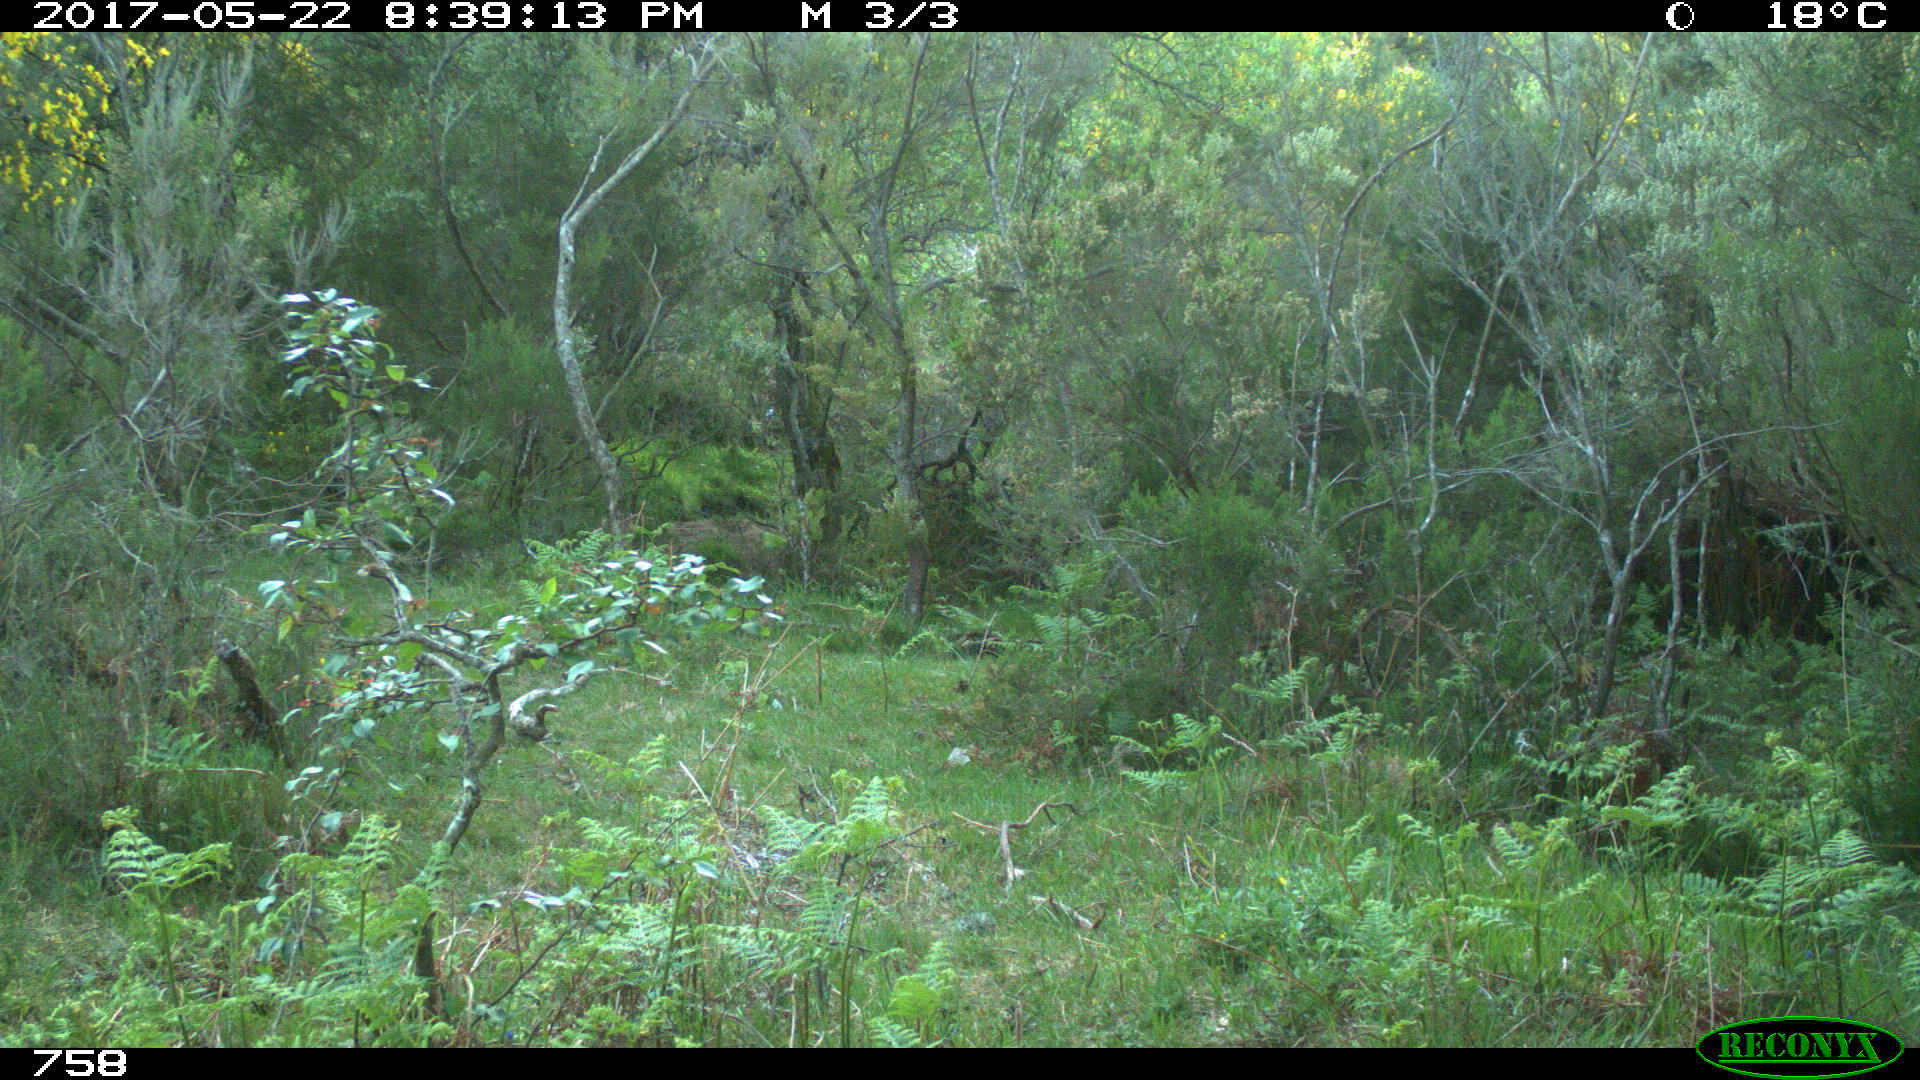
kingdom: Animalia
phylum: Chordata
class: Mammalia
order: Perissodactyla
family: Equidae
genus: Equus
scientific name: Equus caballus
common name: Horse
